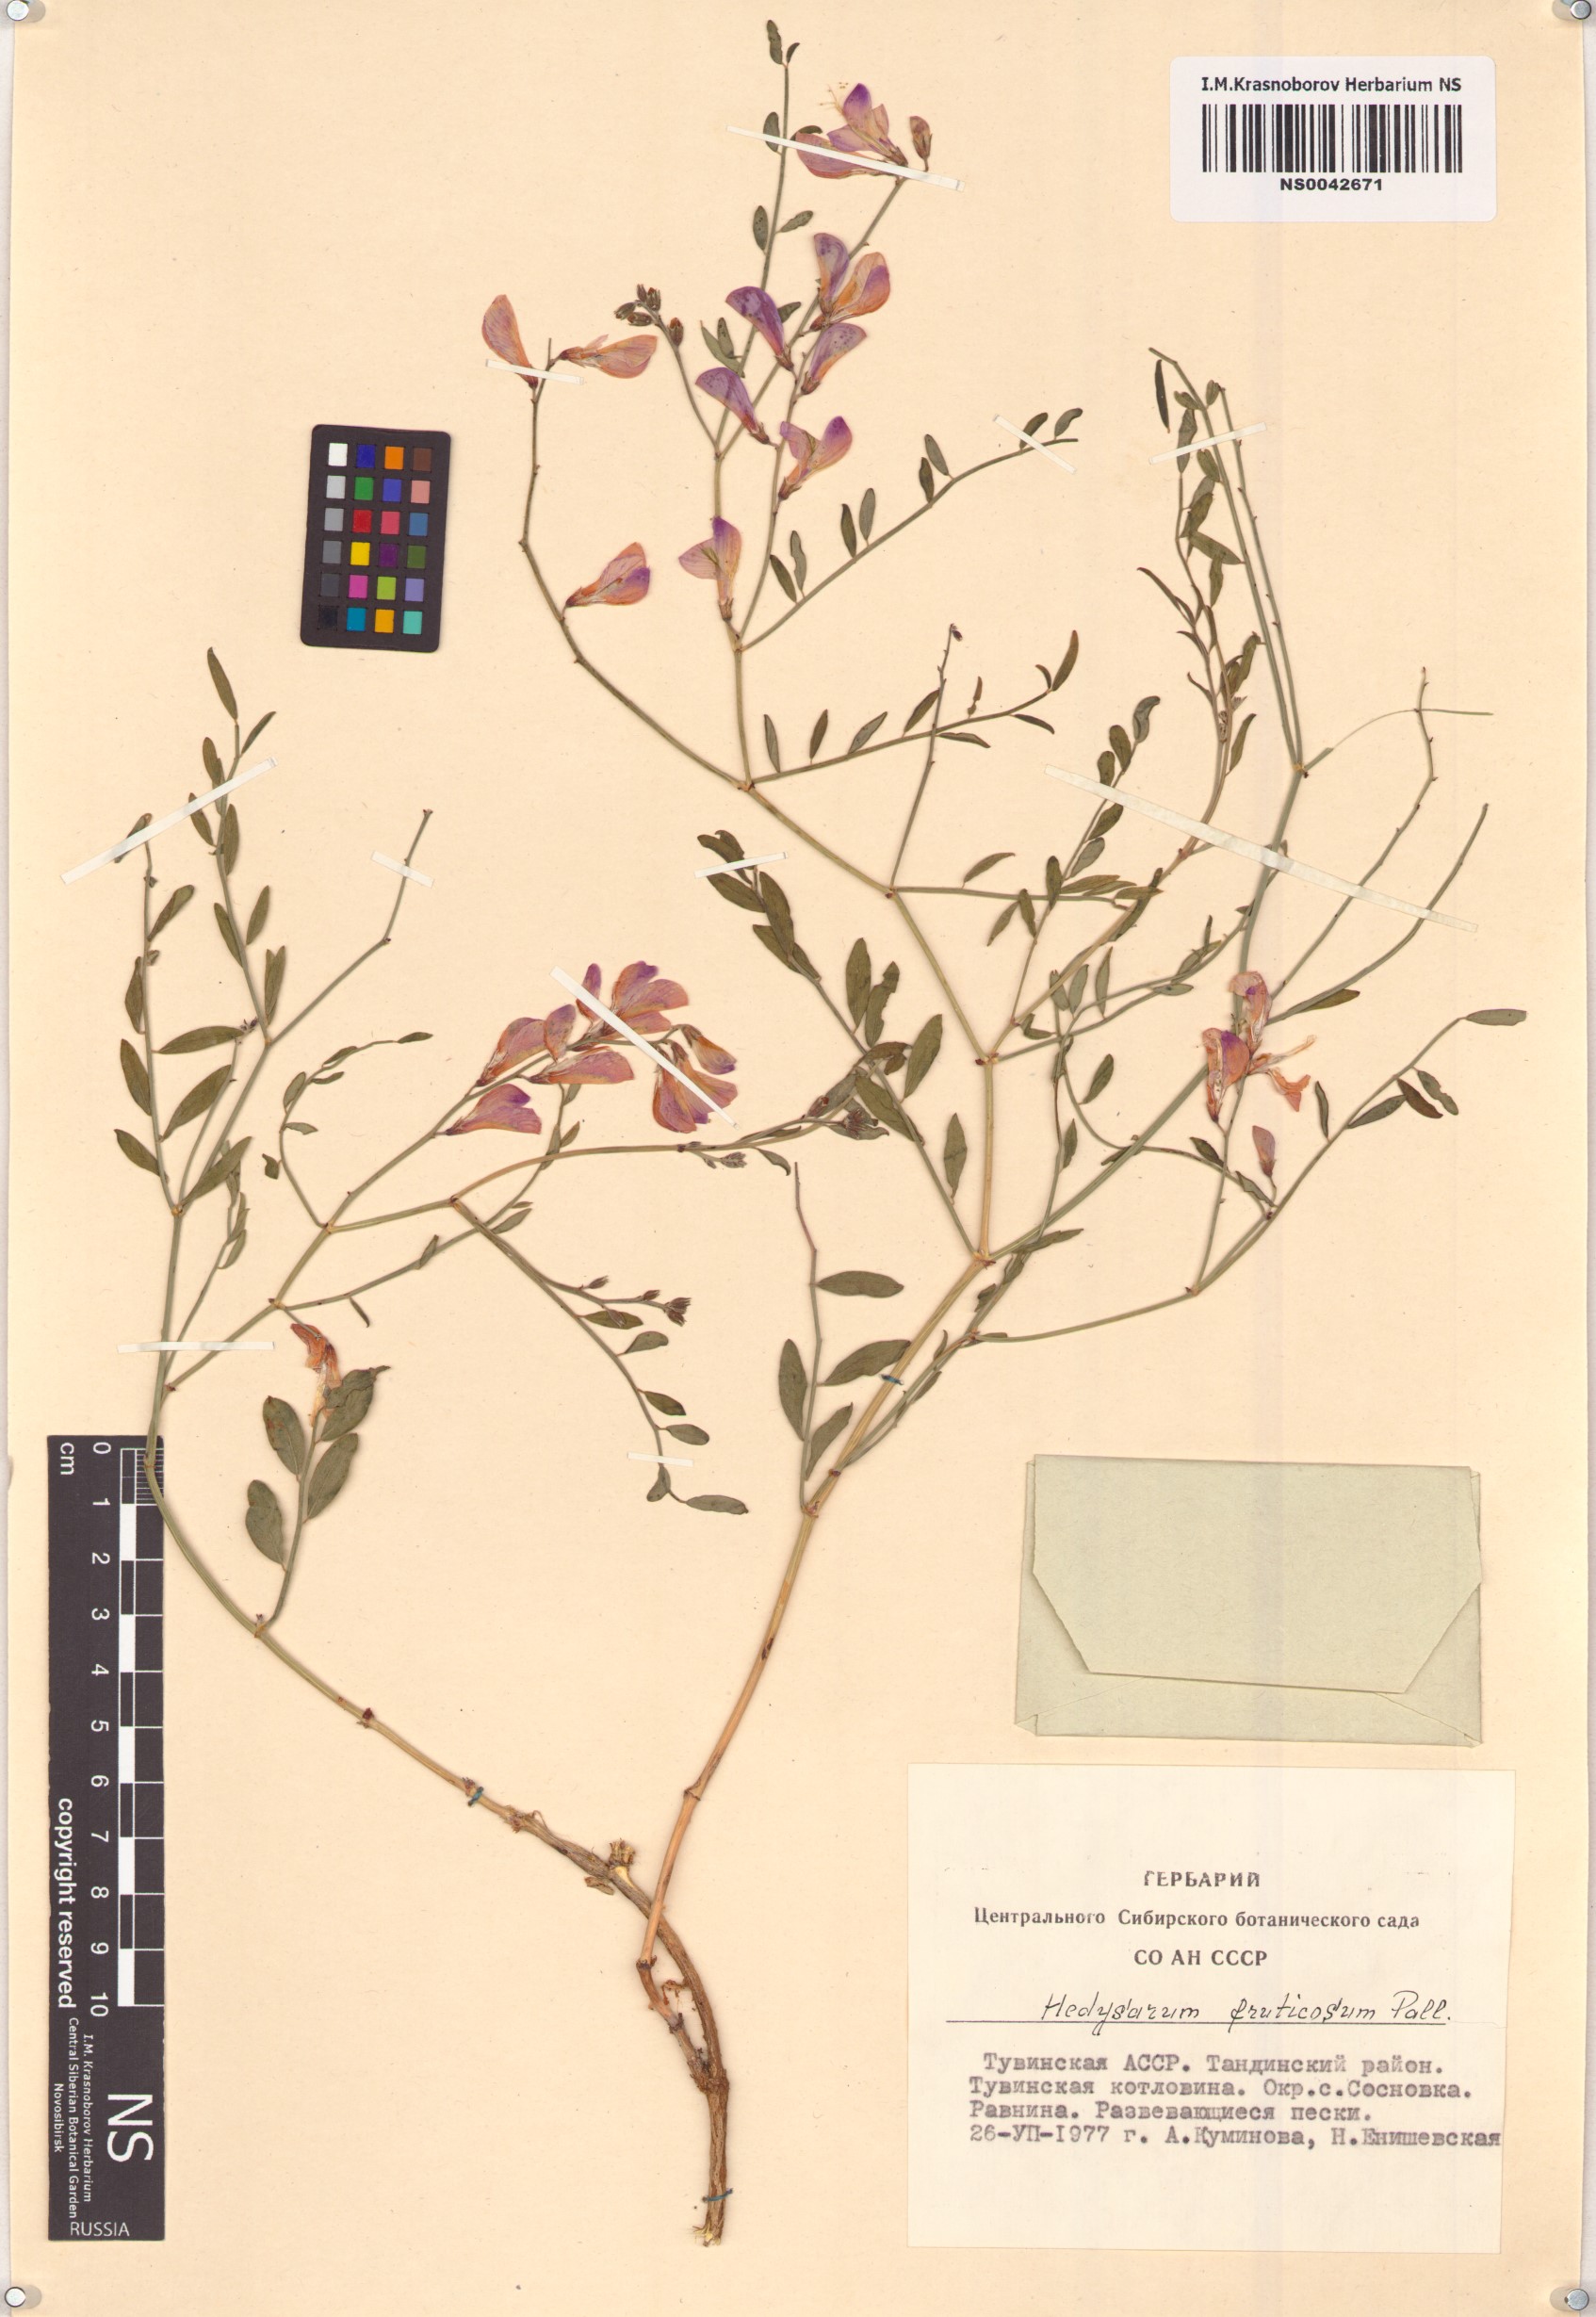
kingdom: Plantae
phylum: Tracheophyta
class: Magnoliopsida
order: Fabales
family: Fabaceae
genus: Corethrodendron
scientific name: Corethrodendron fruticosum
